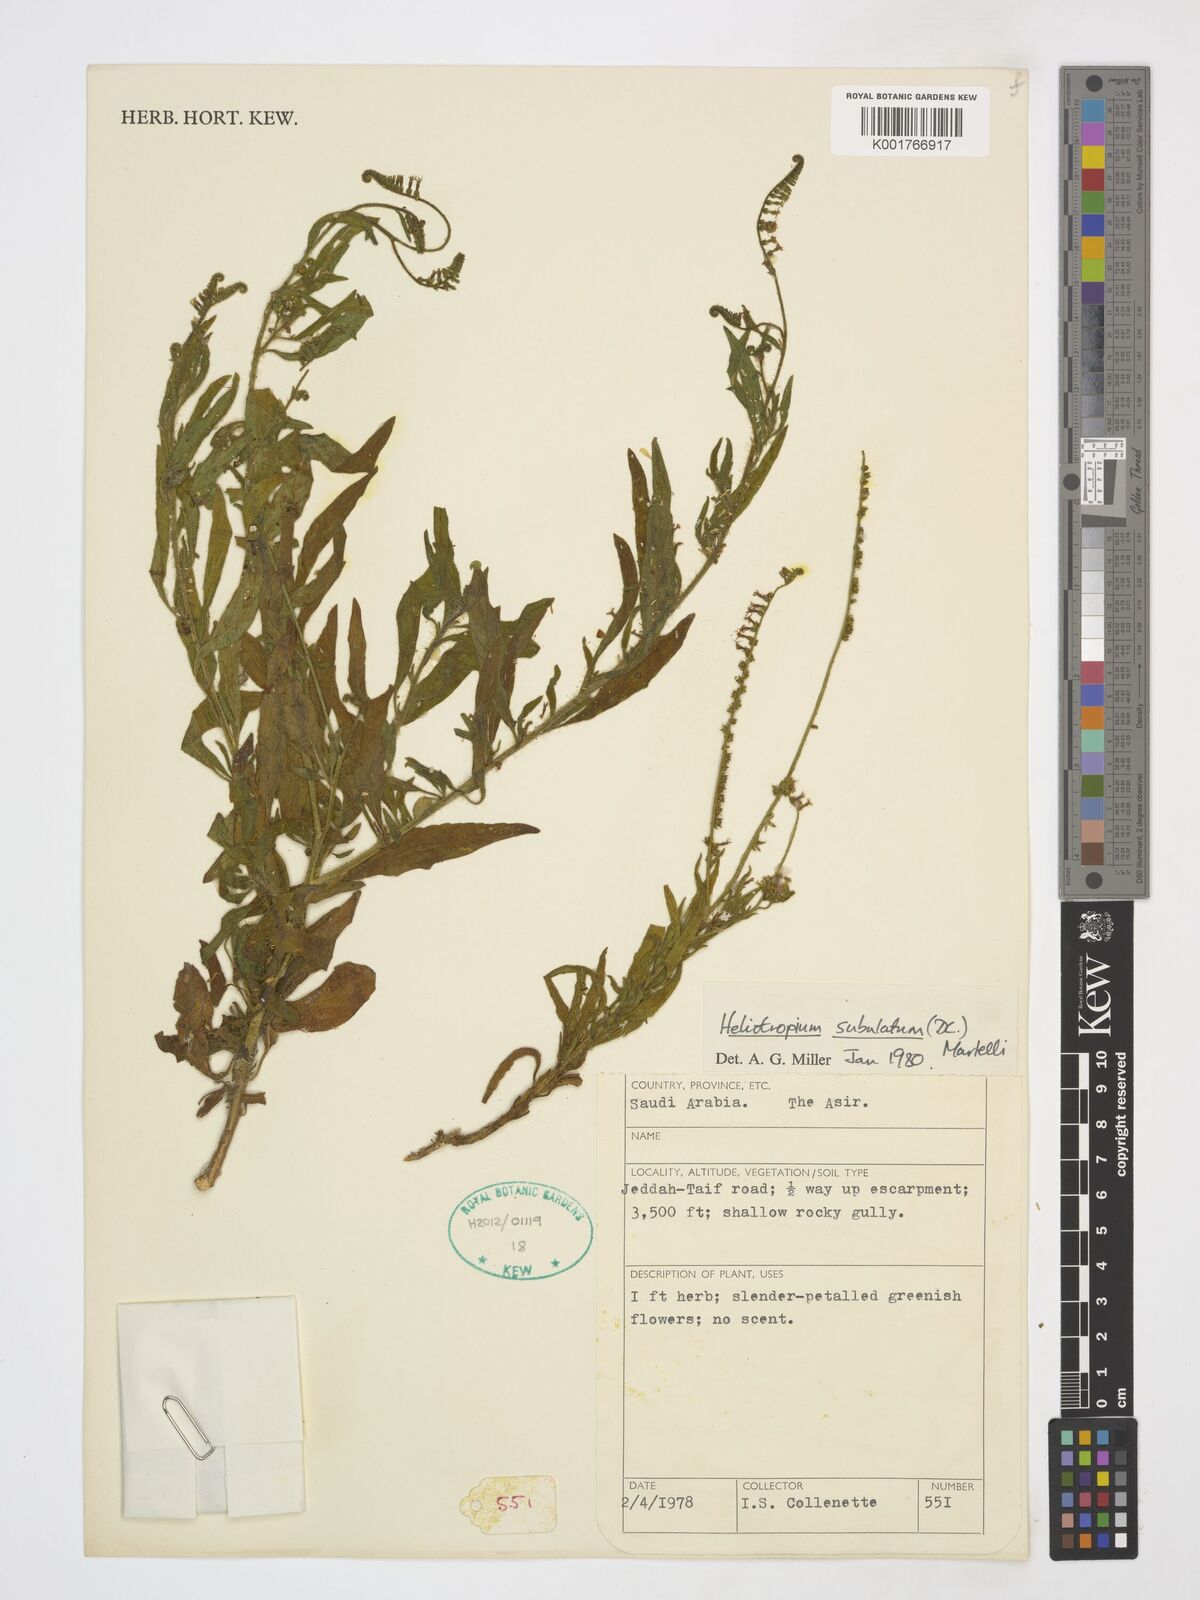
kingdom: Plantae
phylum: Tracheophyta
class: Magnoliopsida
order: Boraginales
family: Heliotropiaceae
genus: Heliotropium
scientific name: Heliotropium zeylanicum
